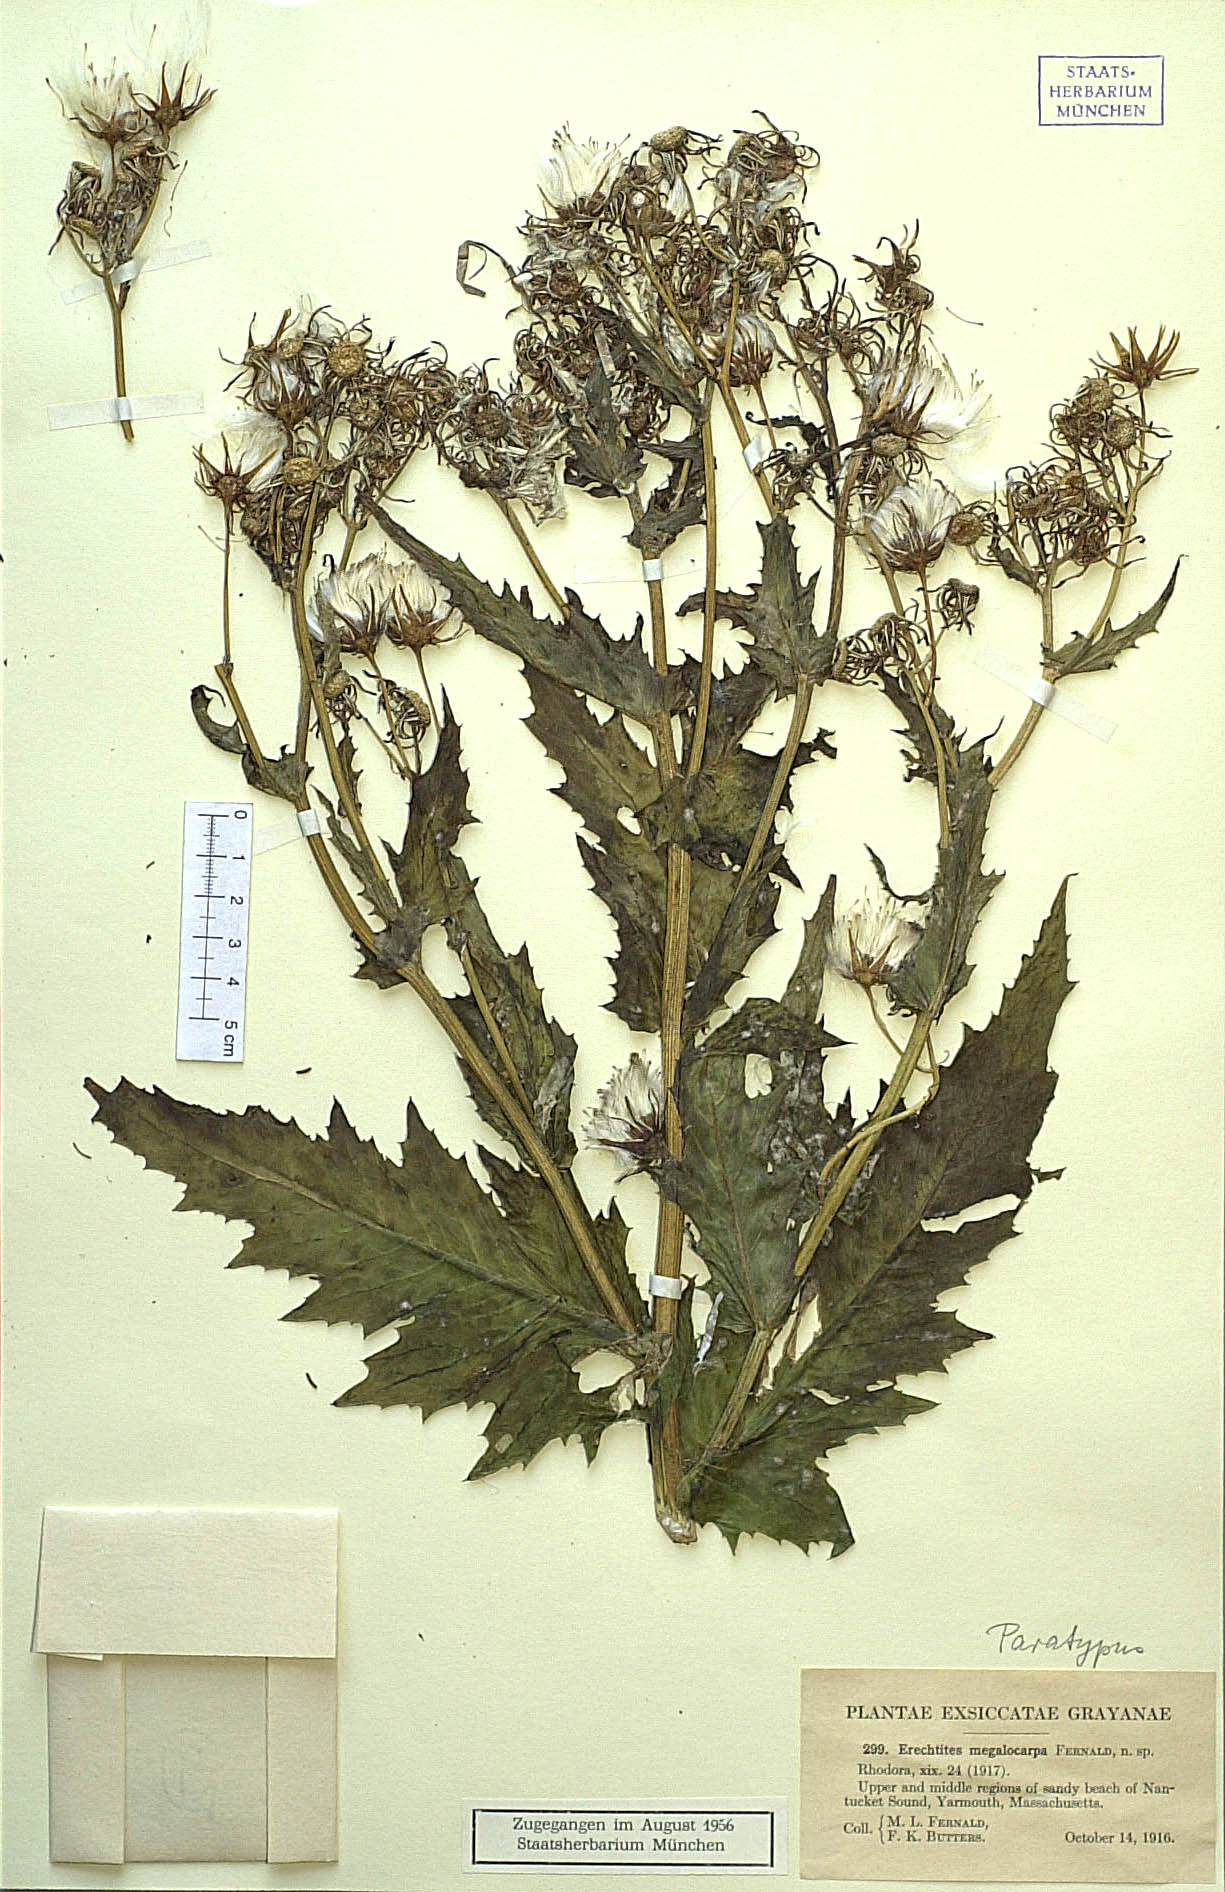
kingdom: Plantae
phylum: Tracheophyta
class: Magnoliopsida
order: Asterales
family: Asteraceae
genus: Erechtites
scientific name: Erechtites hieraciifolius
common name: American burnweed
